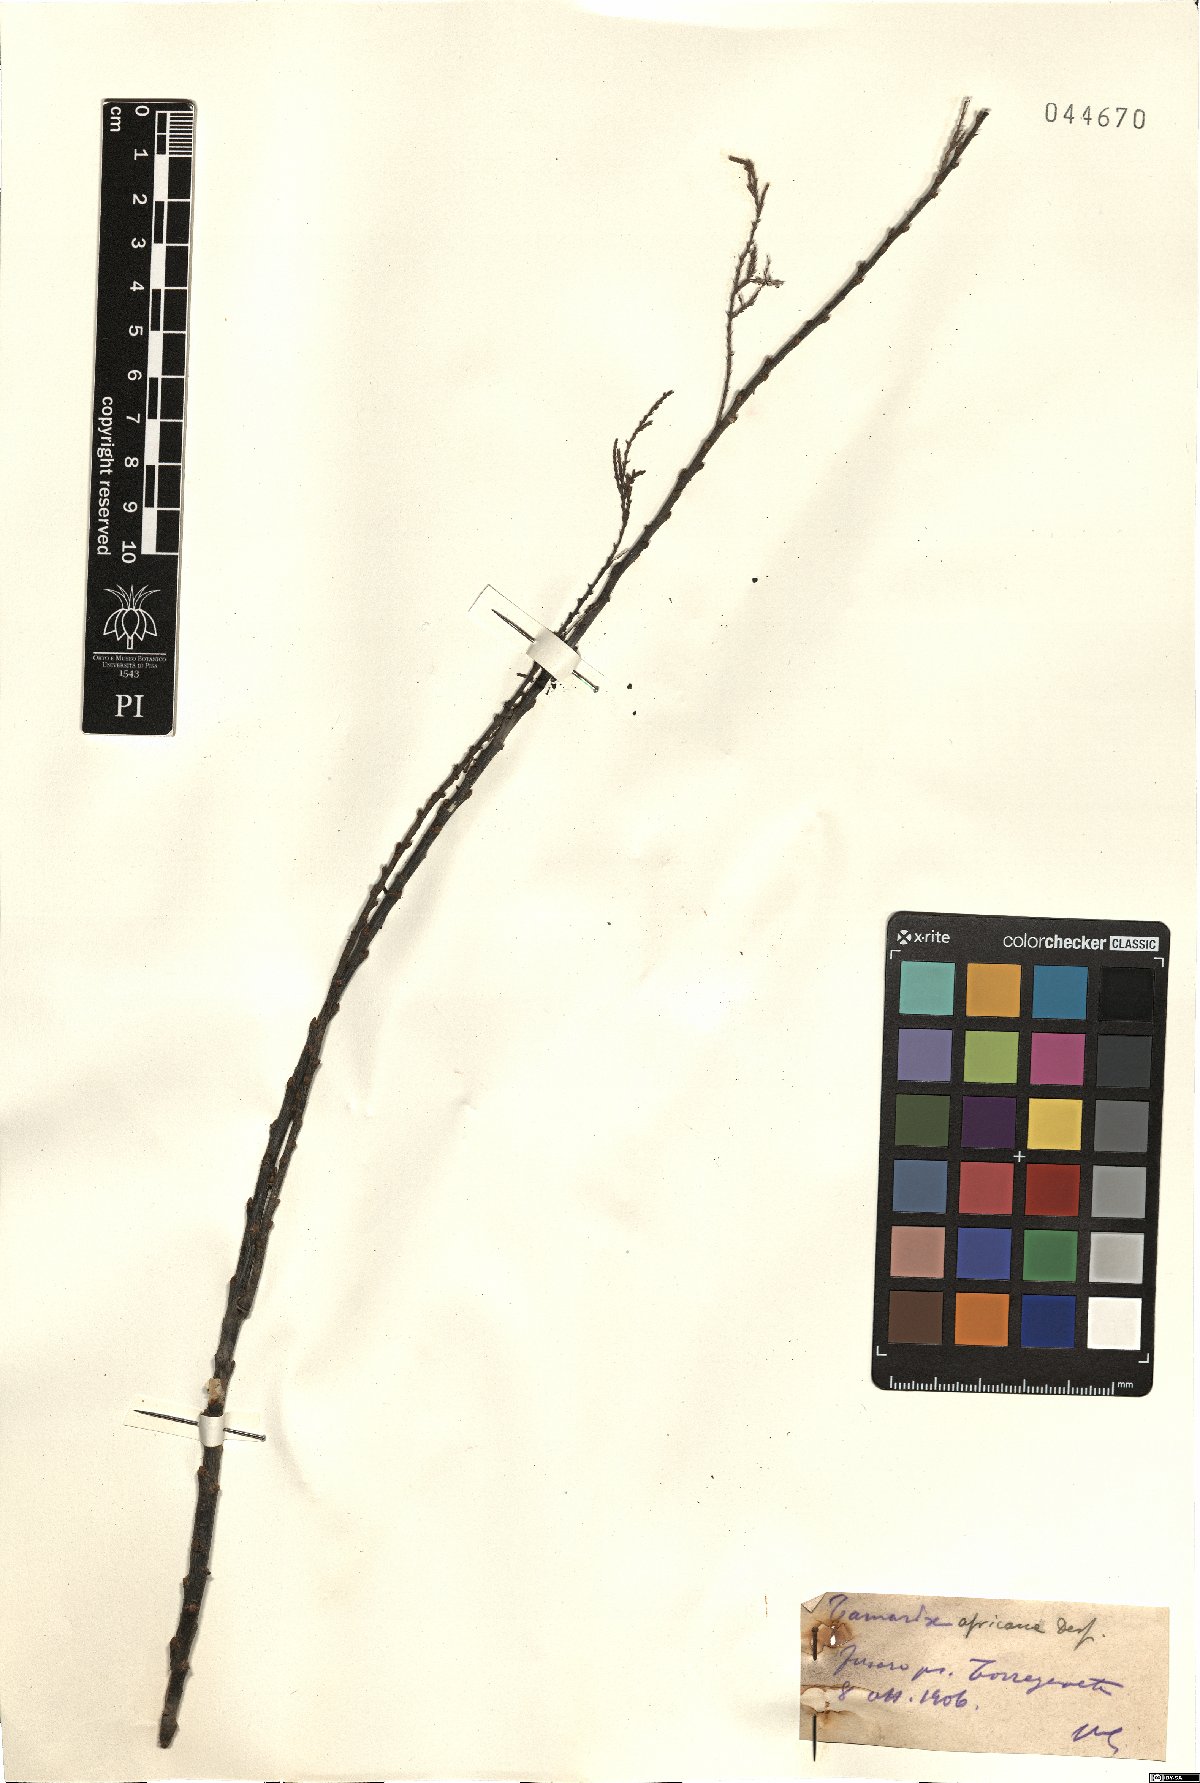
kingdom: Plantae
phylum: Tracheophyta
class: Magnoliopsida
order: Caryophyllales
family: Tamaricaceae
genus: Tamarix
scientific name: Tamarix africana
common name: African tamarisk
